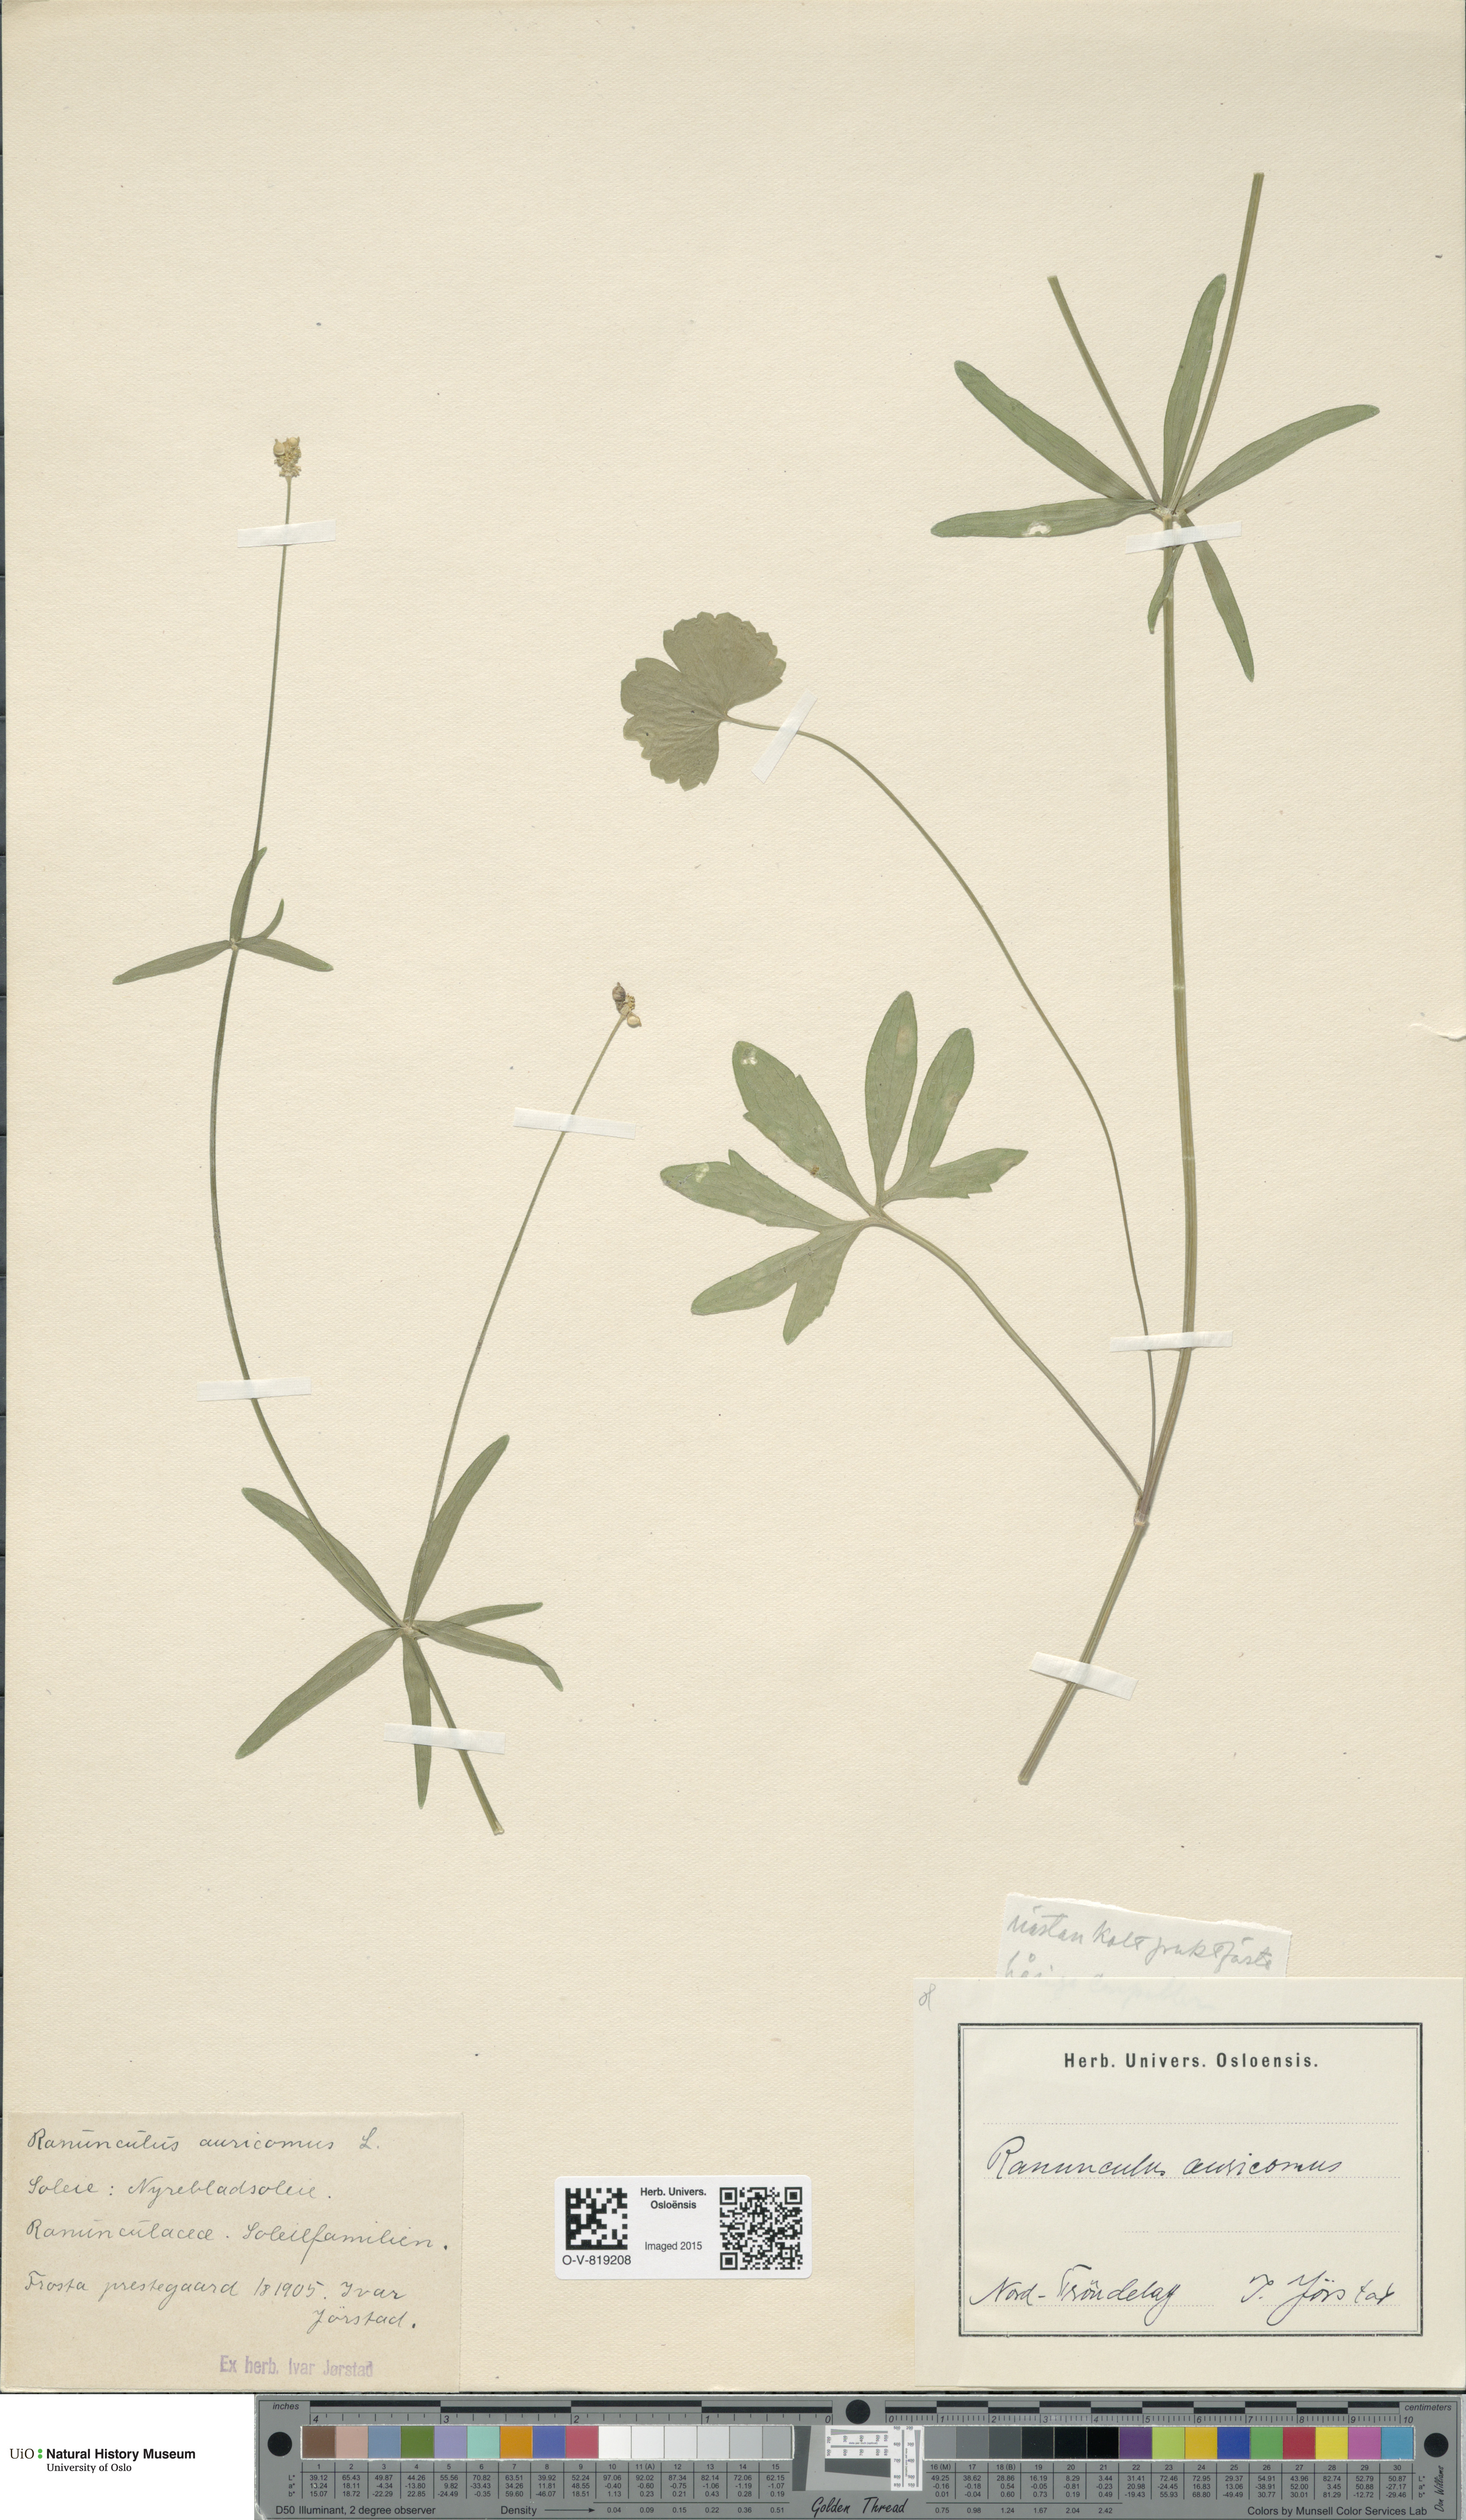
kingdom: Plantae
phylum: Tracheophyta
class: Magnoliopsida
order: Ranunculales
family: Ranunculaceae
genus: Ranunculus
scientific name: Ranunculus auricomus
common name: Goldilocks buttercup
